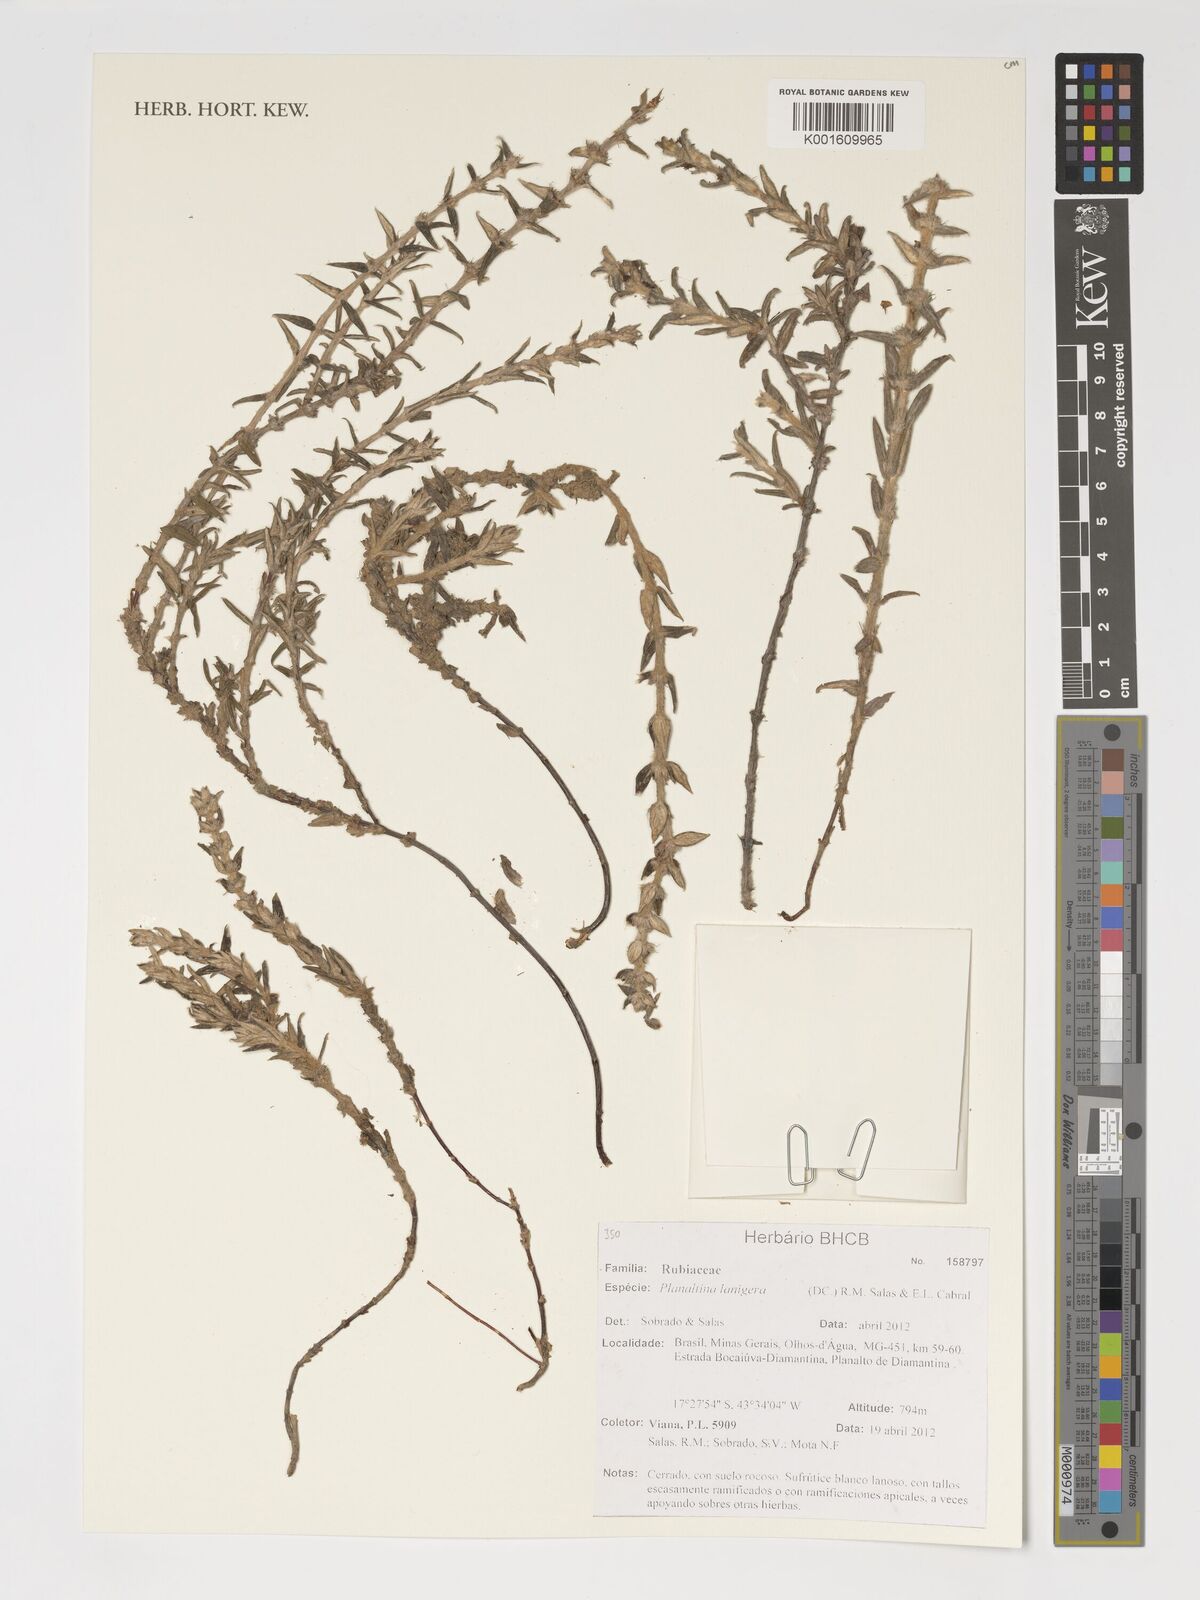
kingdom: Plantae
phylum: Tracheophyta
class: Magnoliopsida
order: Gentianales
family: Rubiaceae
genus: Planaltina
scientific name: Planaltina lanigera
